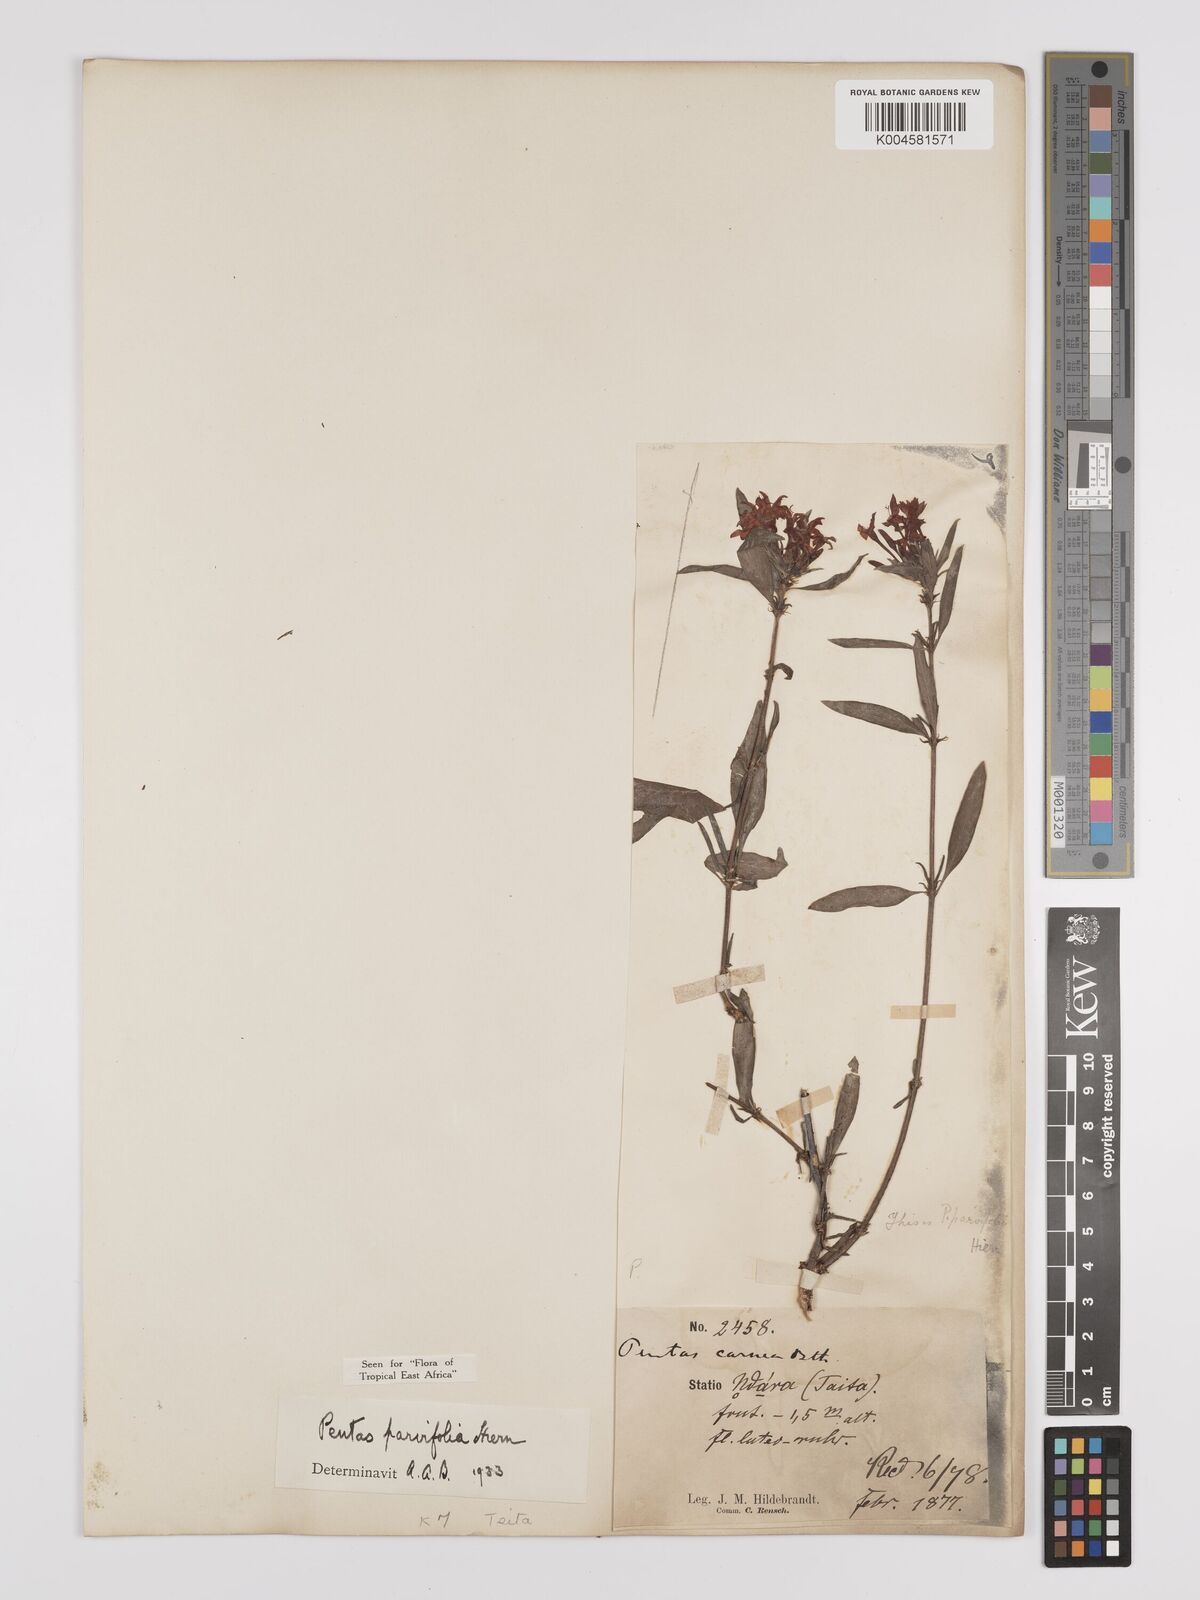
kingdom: Plantae
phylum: Tracheophyta
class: Magnoliopsida
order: Gentianales
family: Rubiaceae
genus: Rhodopentas
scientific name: Rhodopentas parvifolia
